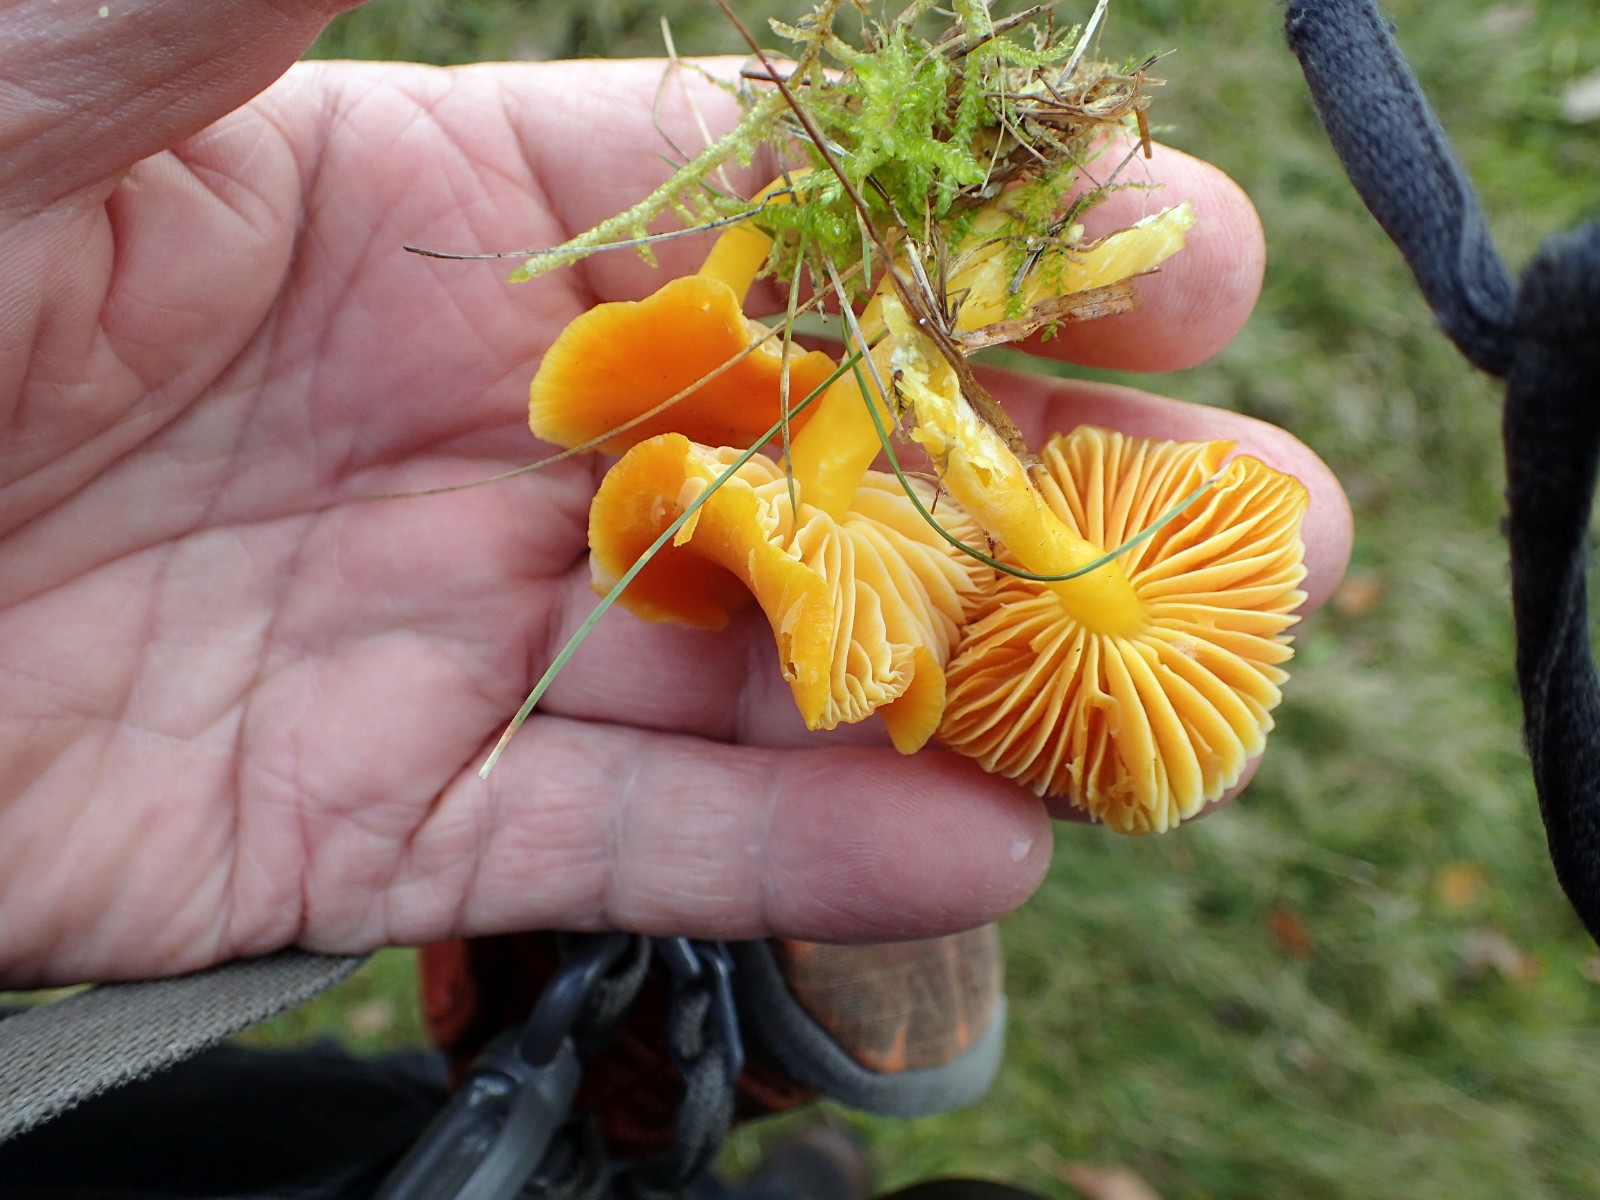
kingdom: Fungi
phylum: Basidiomycota
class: Agaricomycetes
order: Agaricales
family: Hygrophoraceae
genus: Hygrocybe
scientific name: Hygrocybe ceracea
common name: voksgul vokshat
